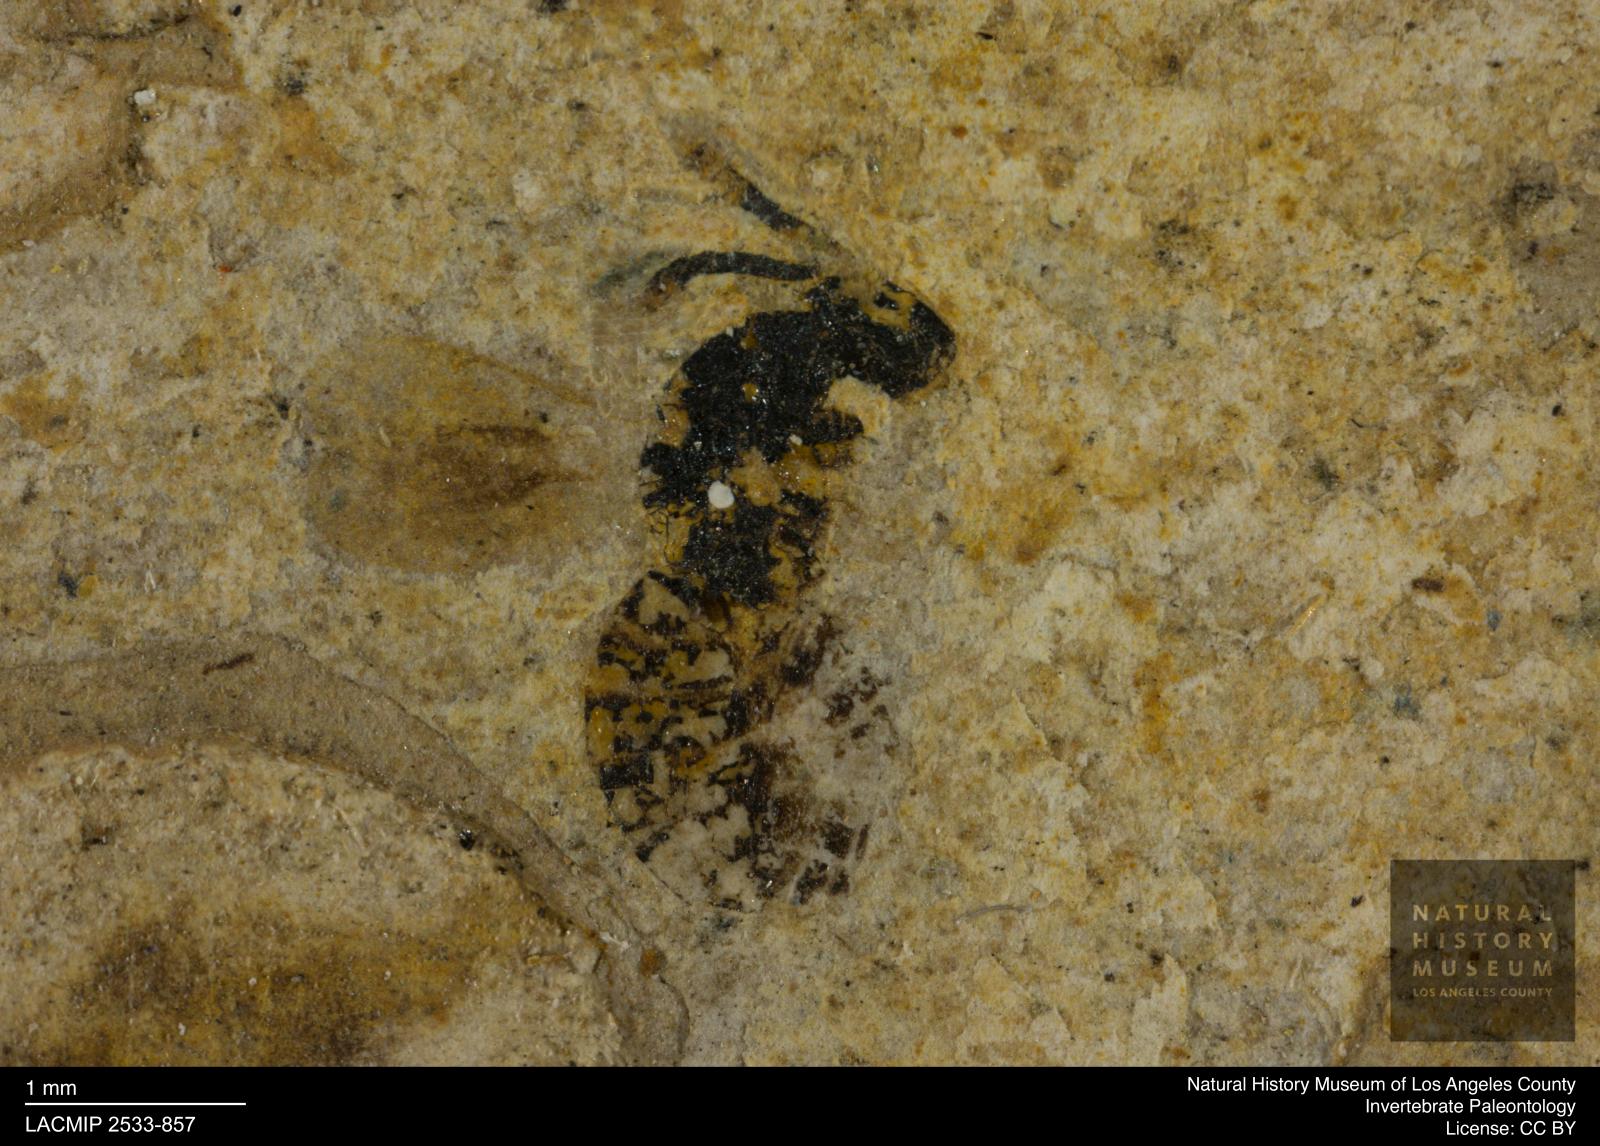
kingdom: Animalia
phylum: Arthropoda
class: Insecta
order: Hymenoptera
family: Pteromalidae
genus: Pteromalus
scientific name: Pteromalus rottensis
